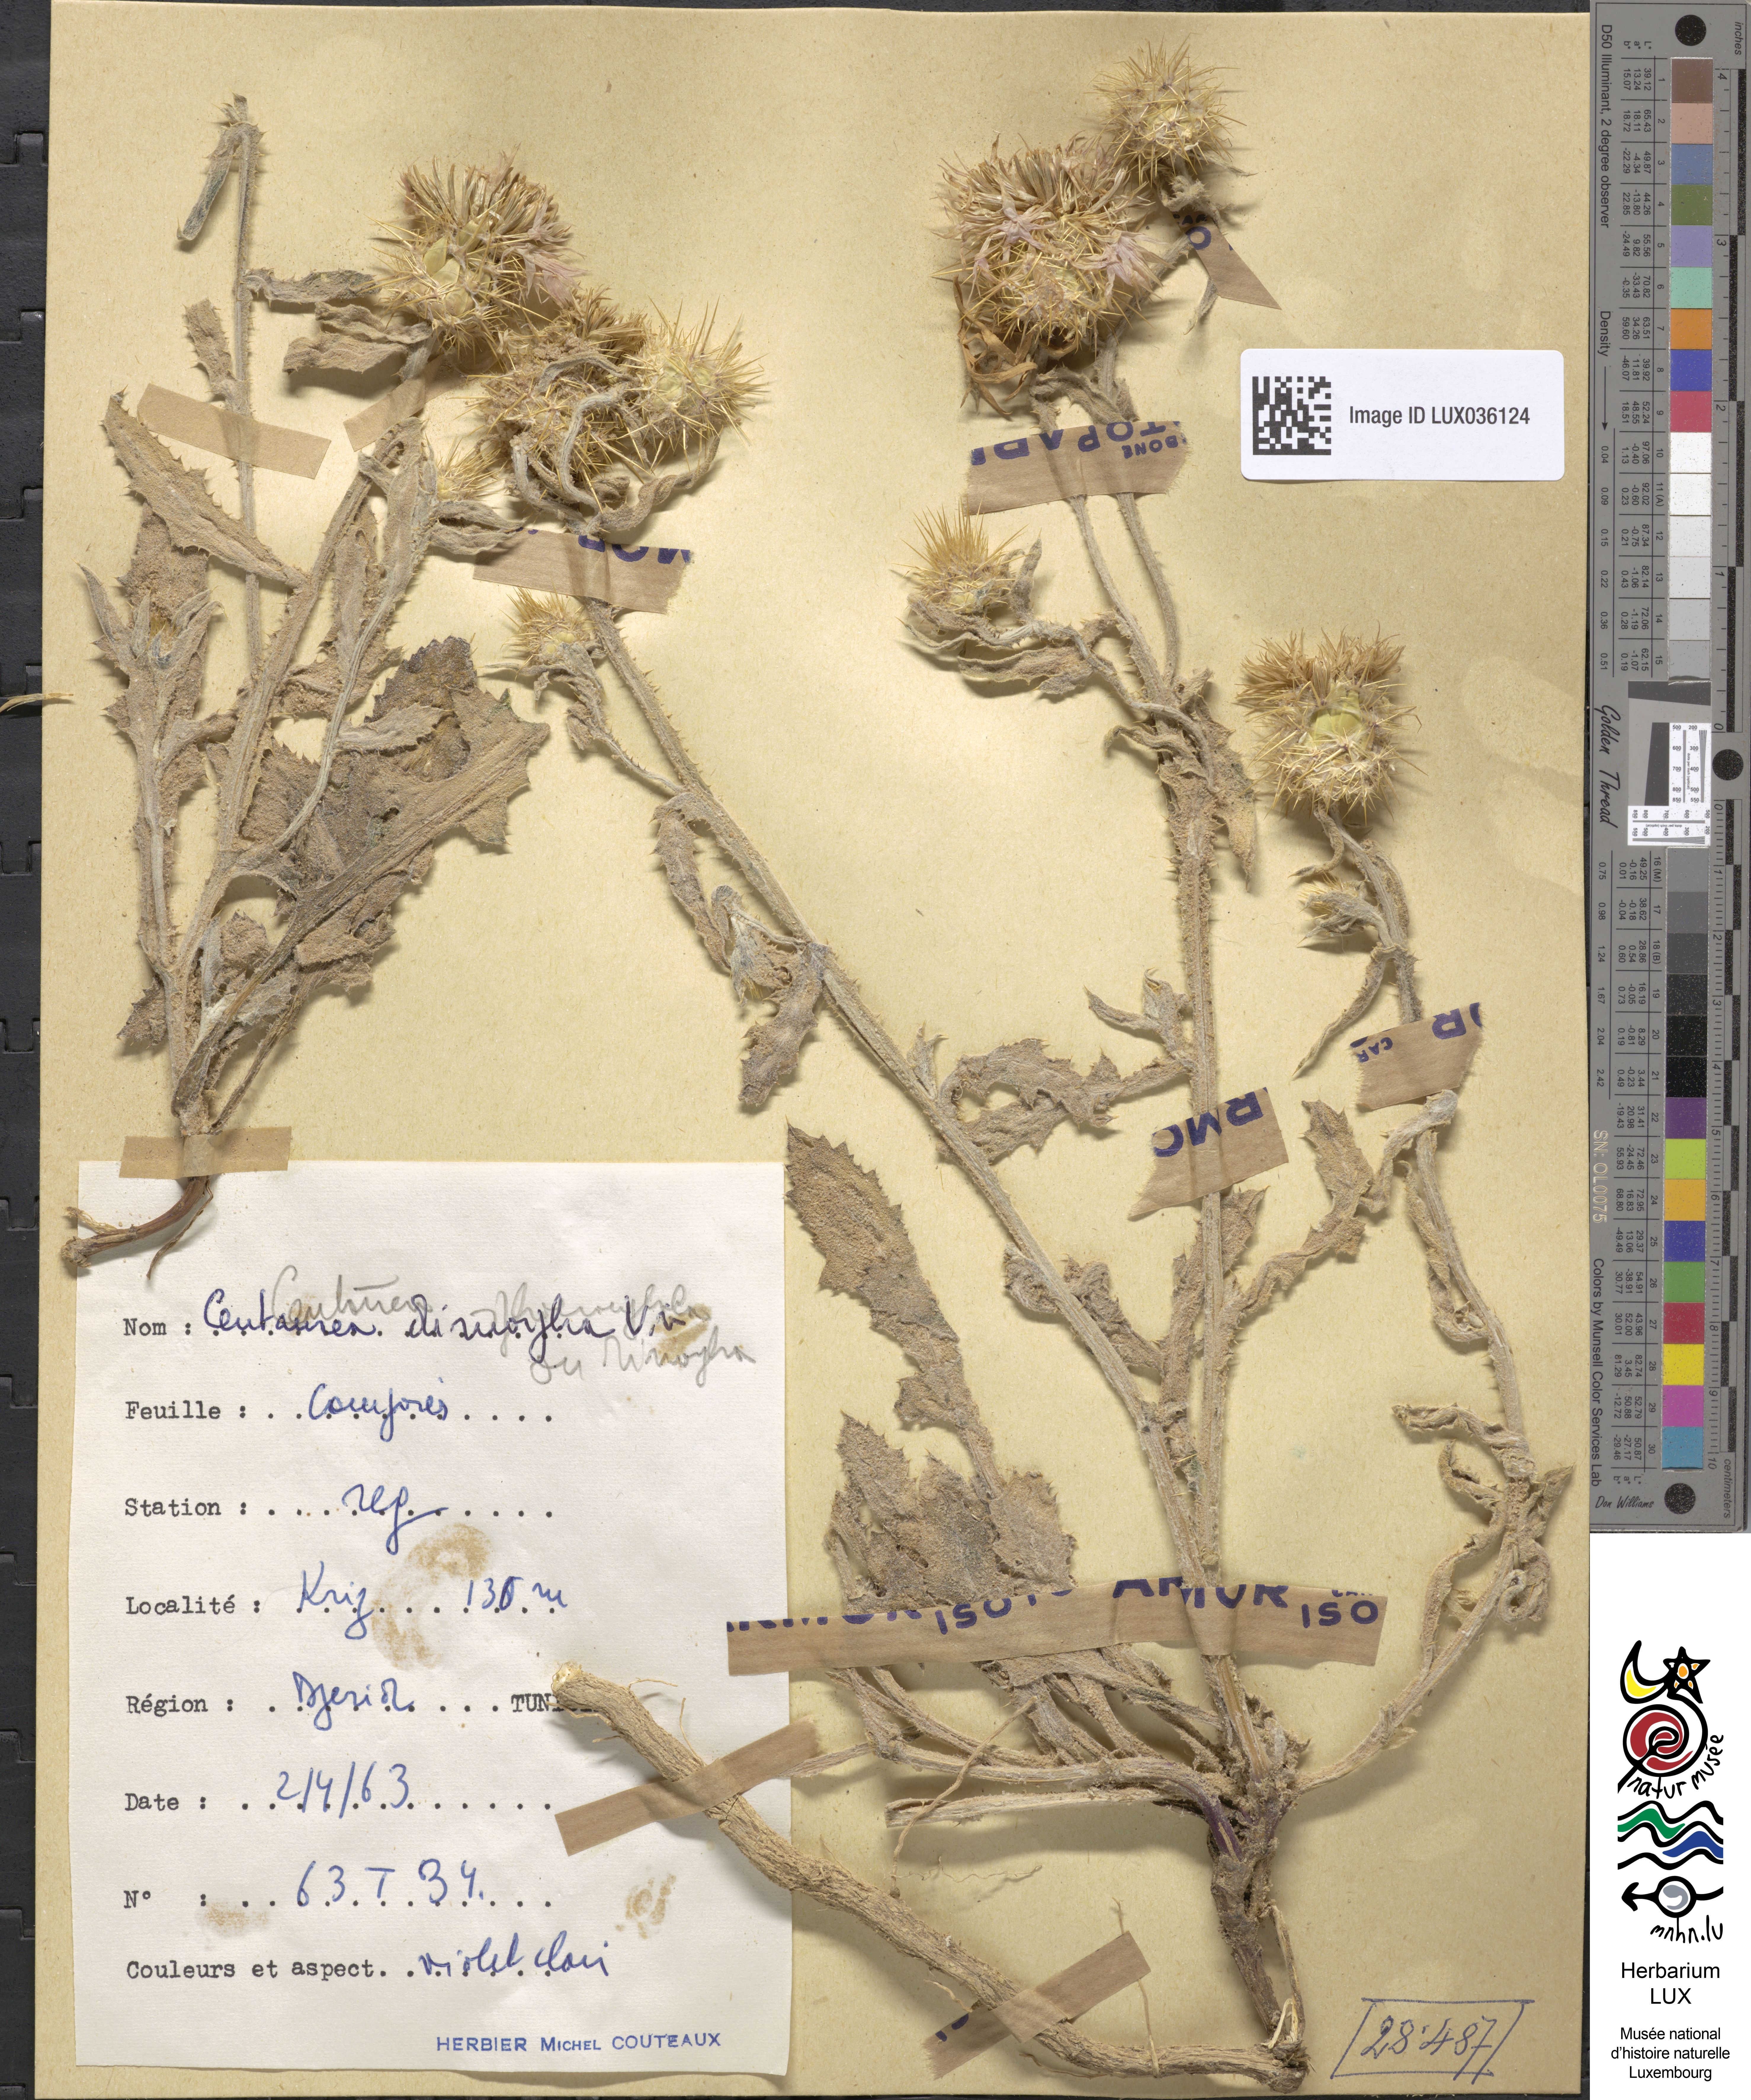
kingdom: Plantae
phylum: Tracheophyta
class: Magnoliopsida
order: Asterales
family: Asteraceae
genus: Centaurea
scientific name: Centaurea dimorpha
